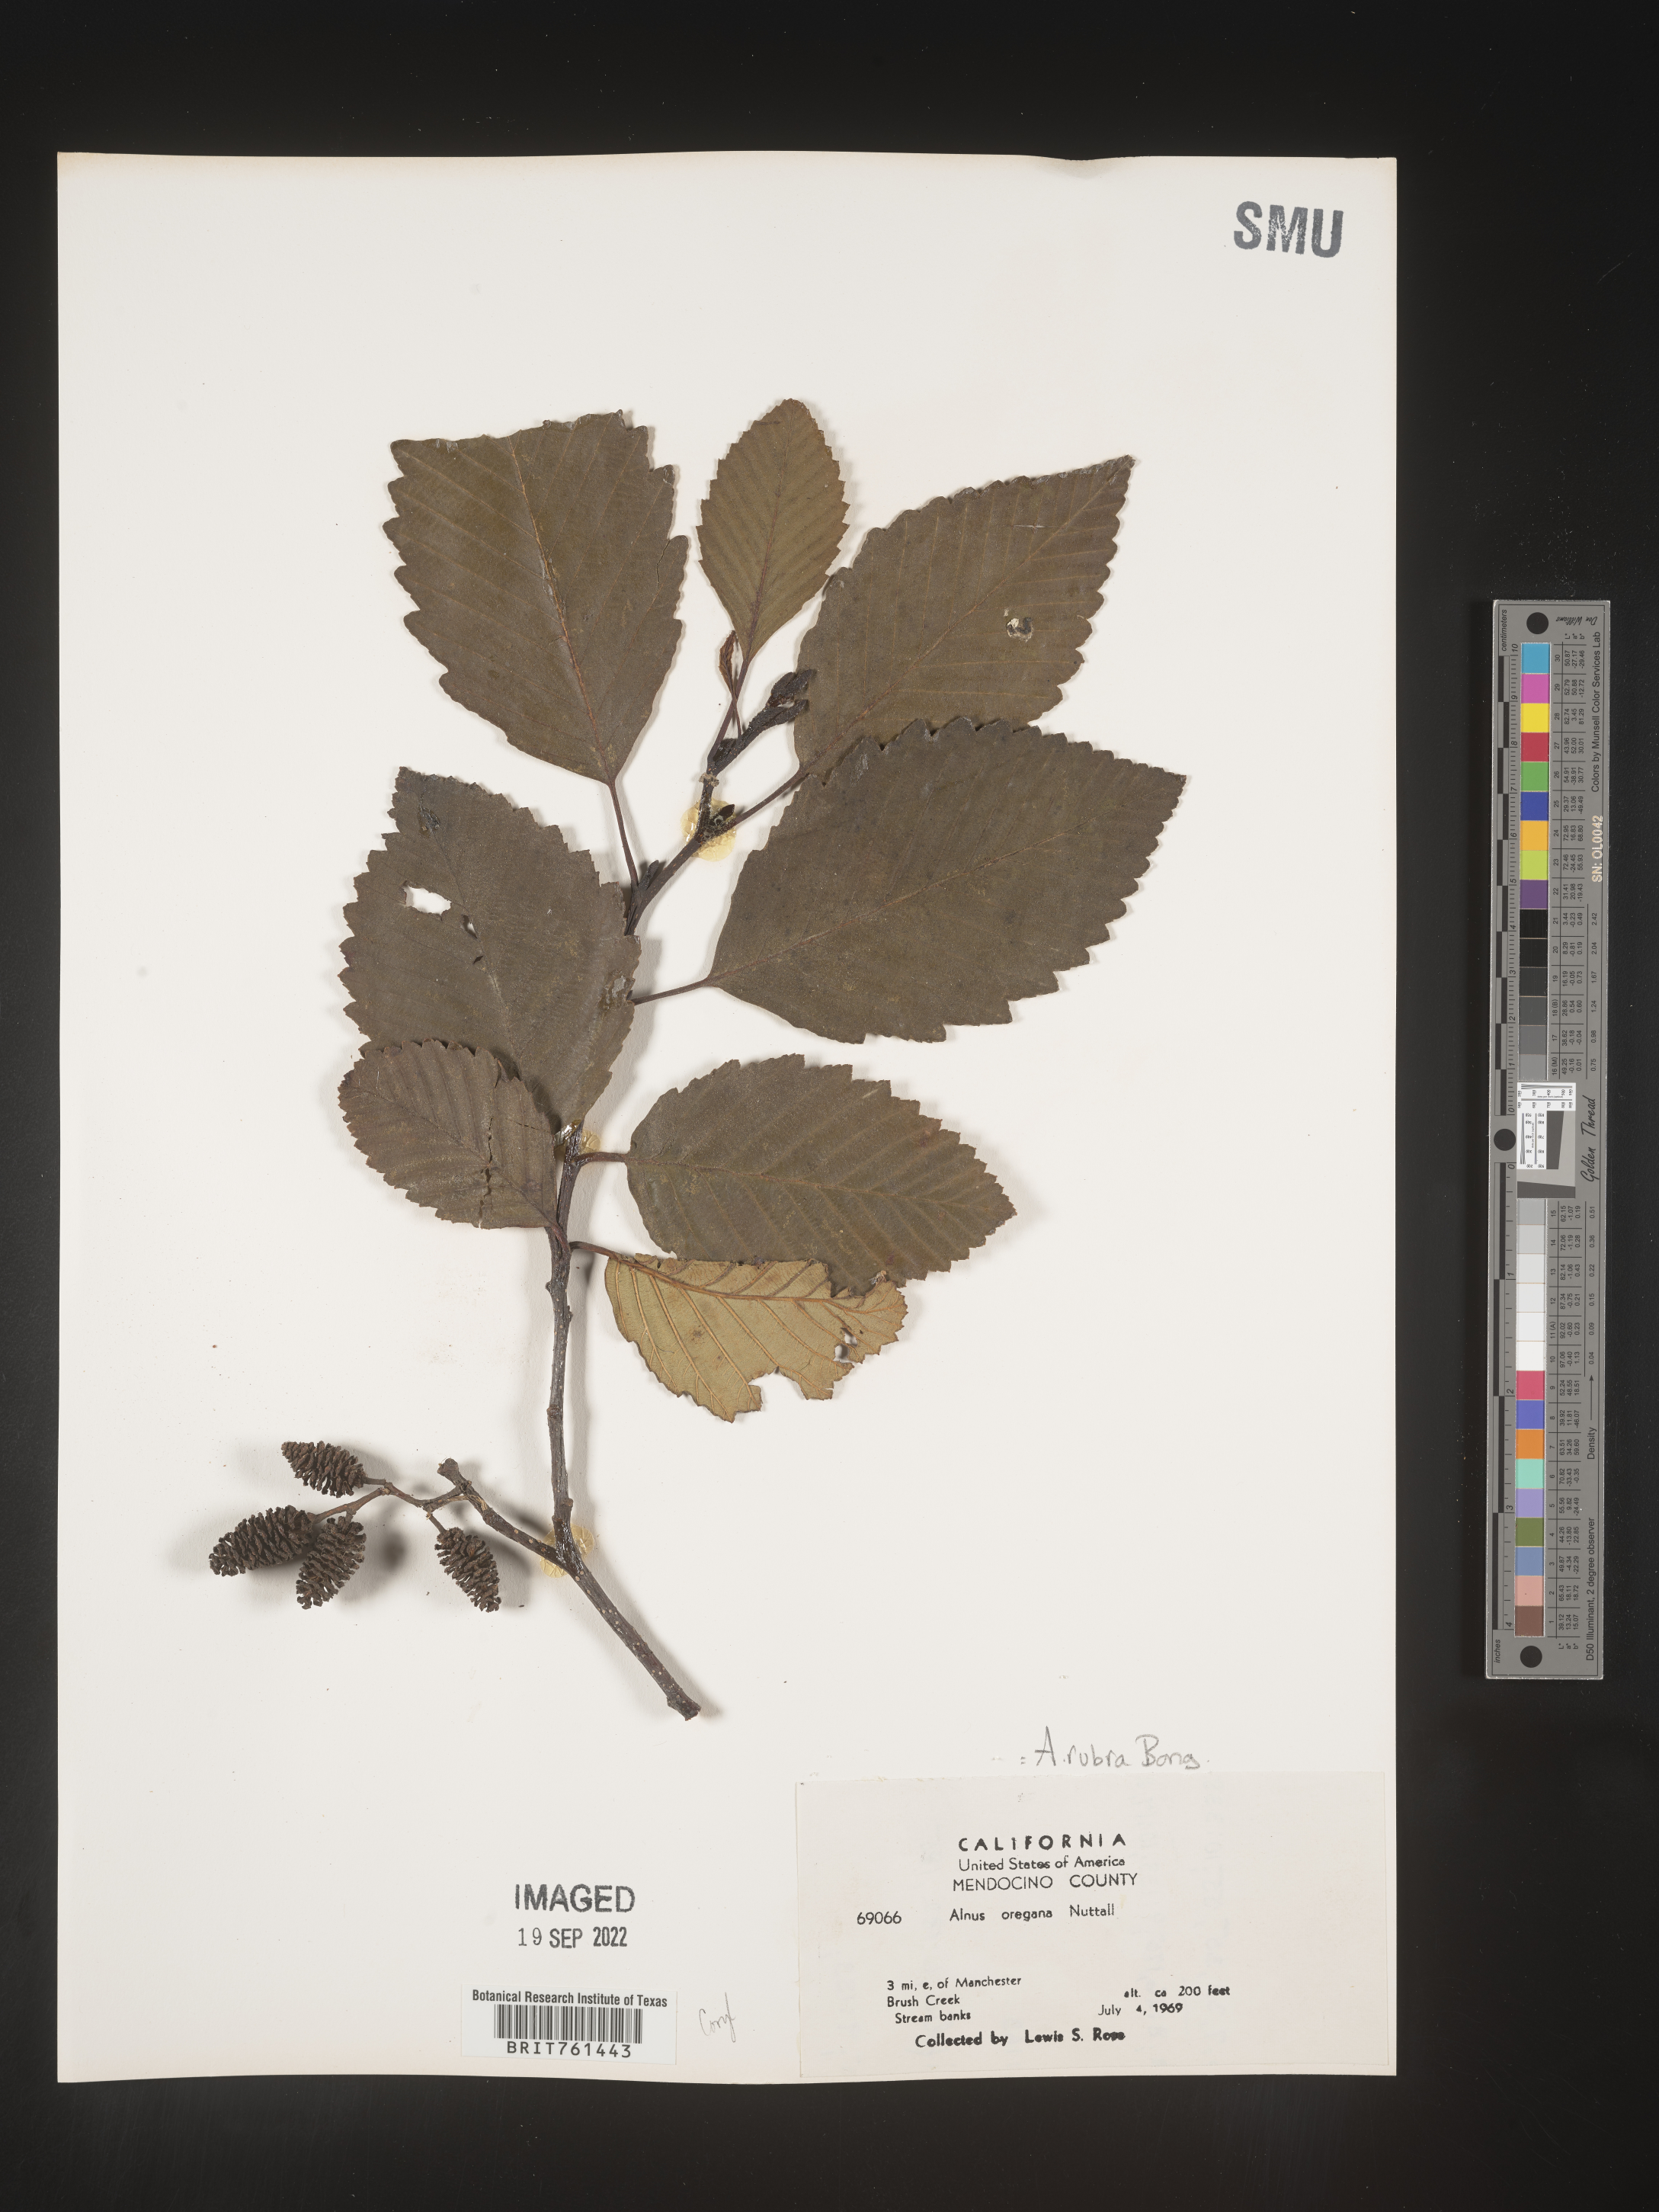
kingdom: Plantae
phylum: Tracheophyta
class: Magnoliopsida
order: Fagales
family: Betulaceae
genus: Alnus
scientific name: Alnus rubra
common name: Red alder
